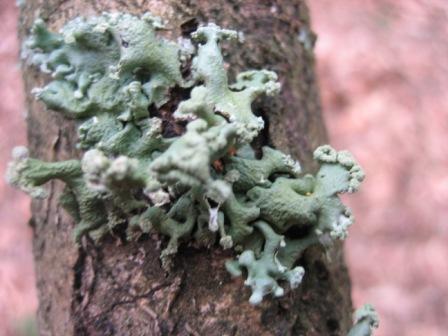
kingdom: Fungi
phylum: Ascomycota
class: Lecanoromycetes
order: Lecanorales
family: Parmeliaceae
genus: Hypogymnia
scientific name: Hypogymnia tubulosa
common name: finger-kvistlav
